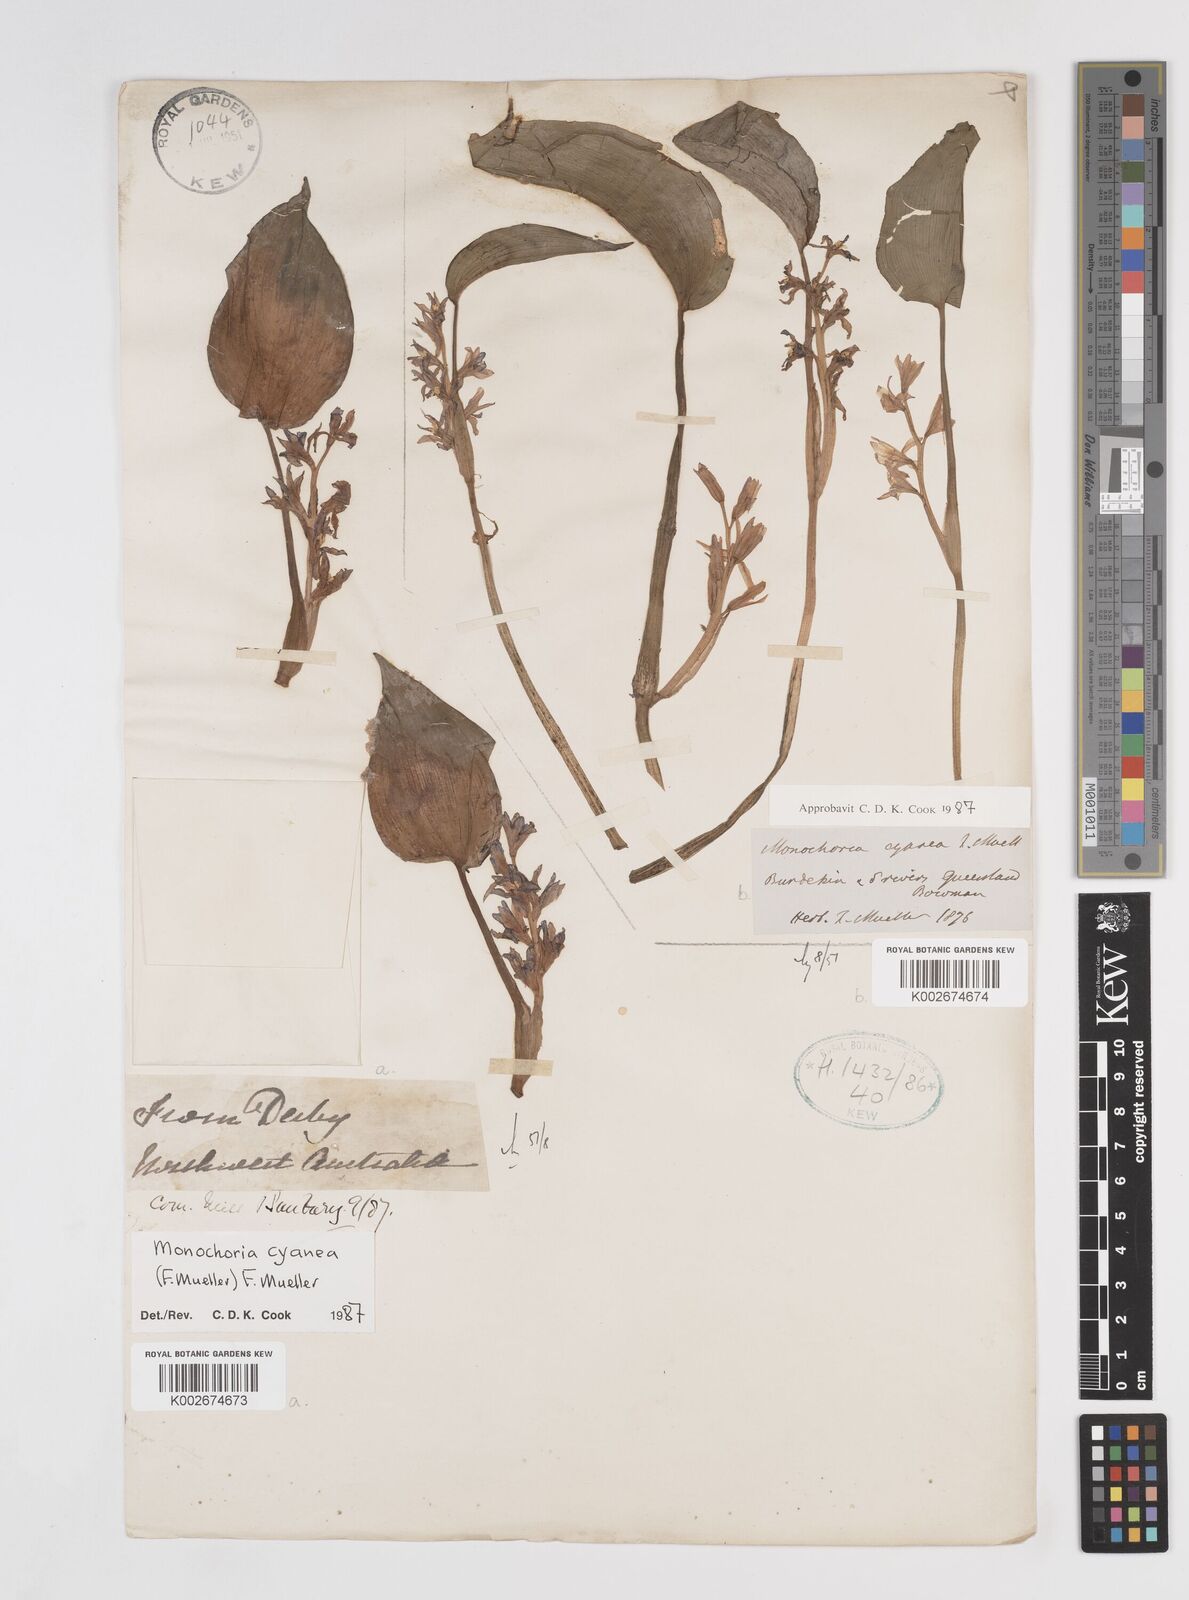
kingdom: Plantae
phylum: Tracheophyta
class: Liliopsida
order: Commelinales
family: Pontederiaceae
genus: Pontederia
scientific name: Pontederia cyanea
